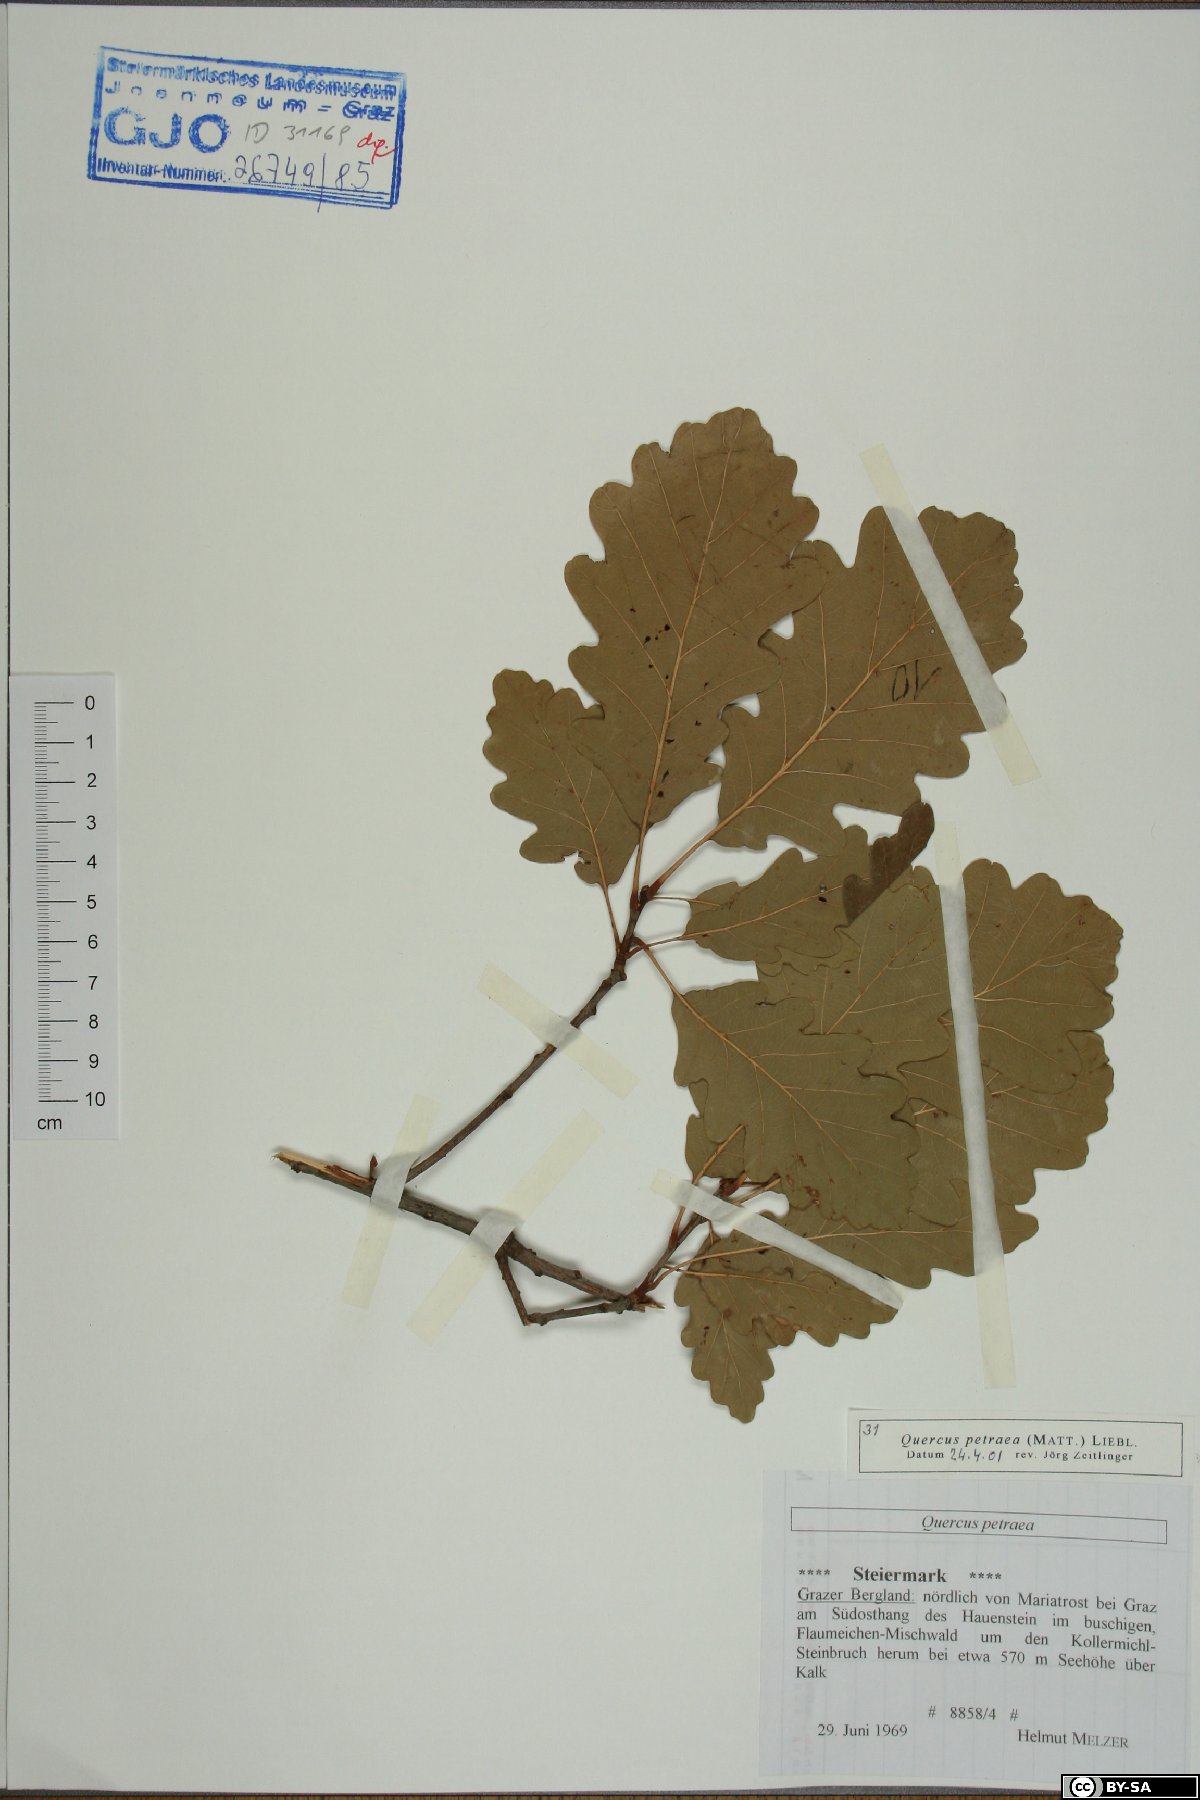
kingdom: Plantae
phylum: Tracheophyta
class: Magnoliopsida
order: Fagales
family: Fagaceae
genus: Quercus
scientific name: Quercus petraea
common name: Sessile oak
